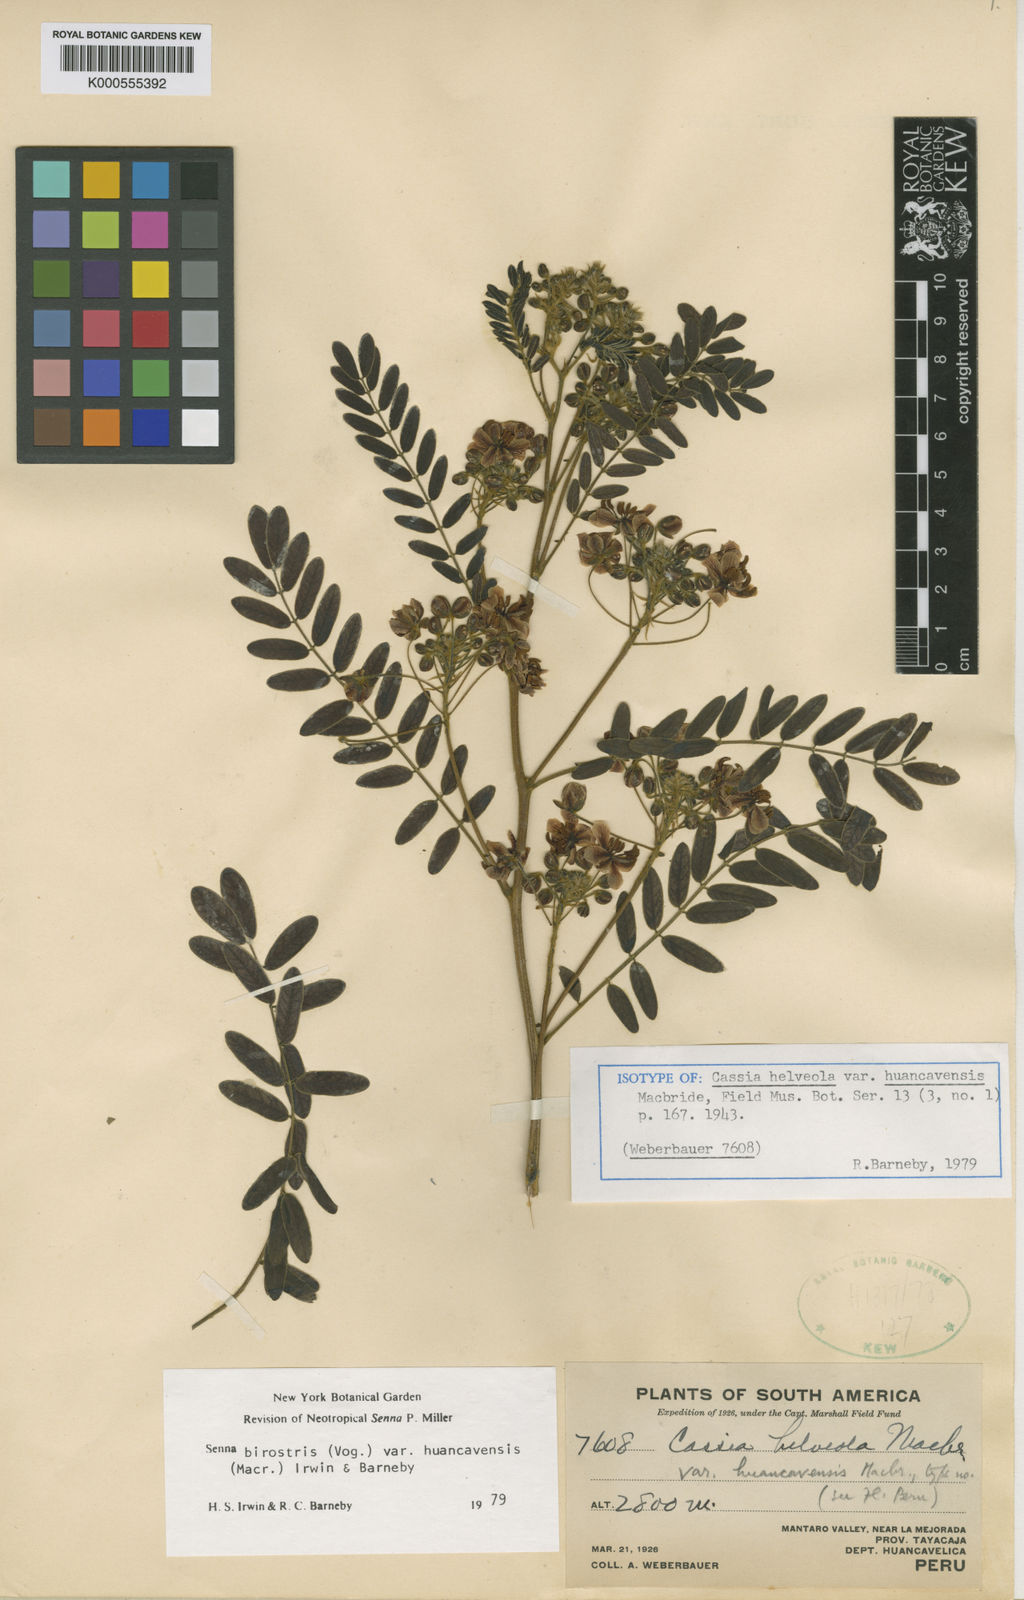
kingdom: Plantae
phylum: Tracheophyta
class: Magnoliopsida
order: Fabales
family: Fabaceae
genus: Senna
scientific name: Senna birostris
